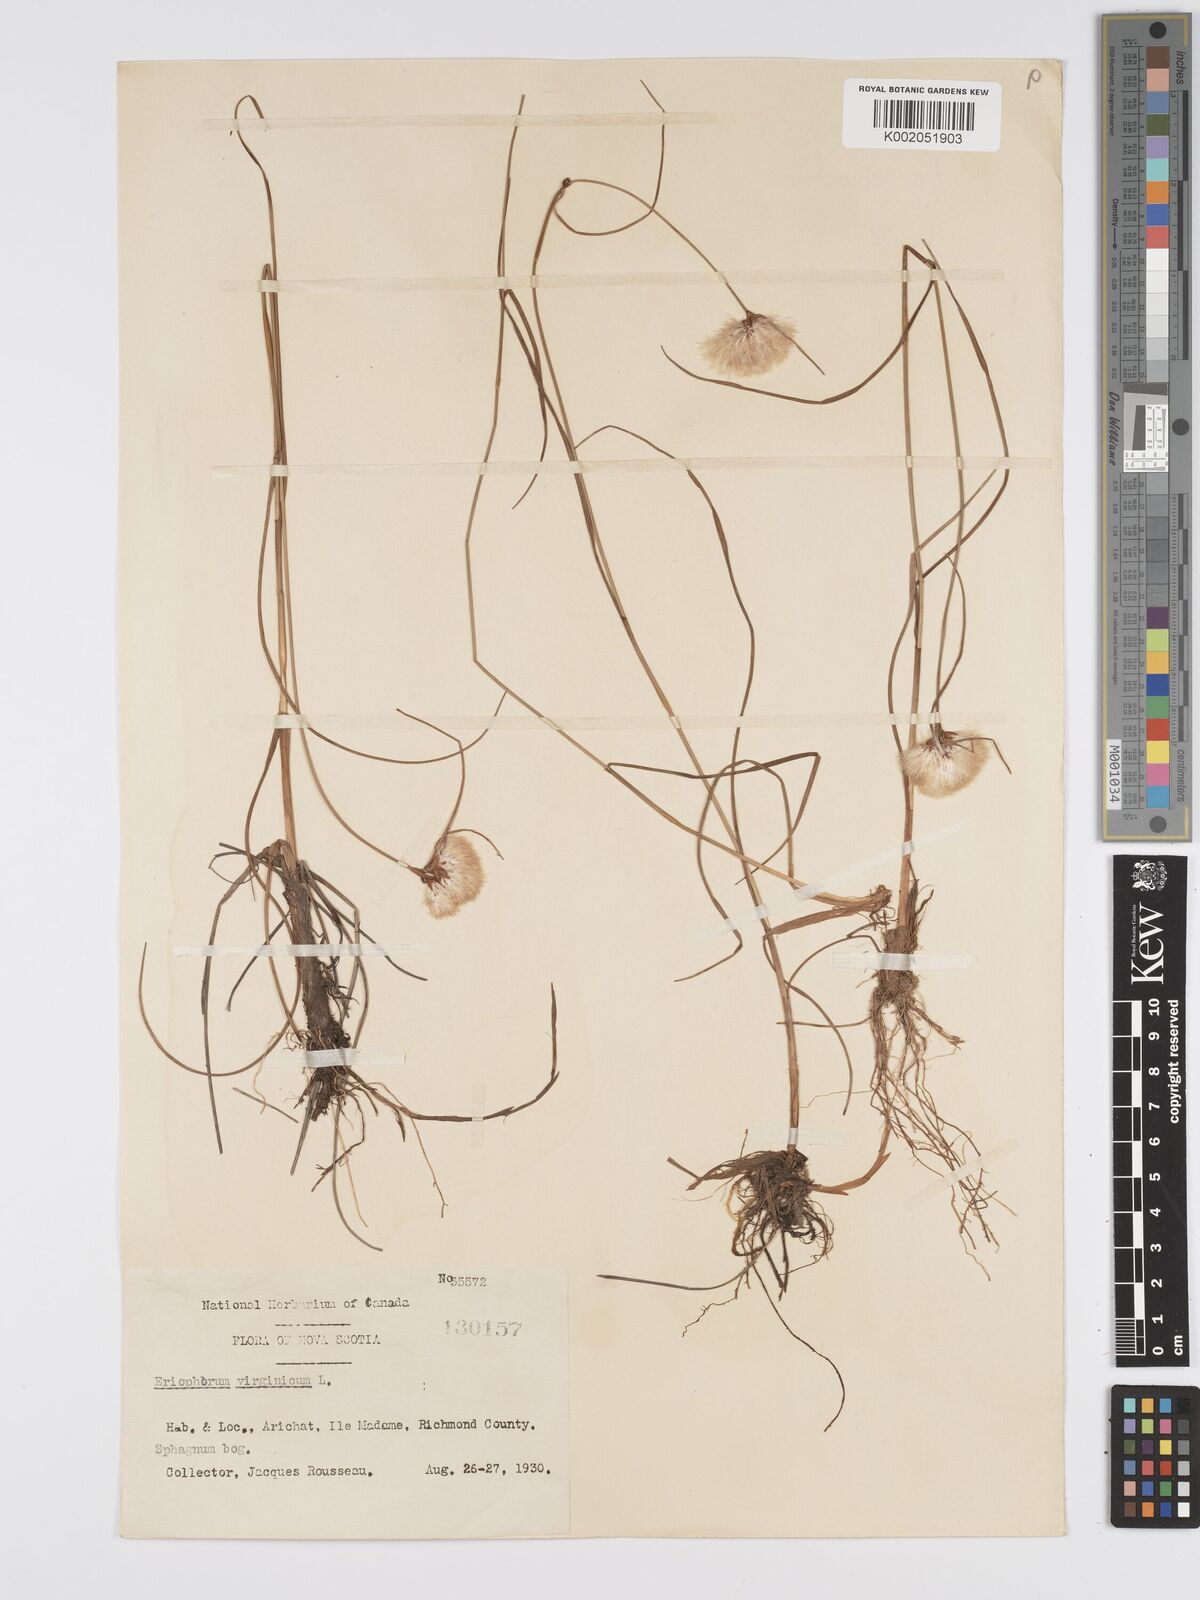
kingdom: Plantae
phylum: Tracheophyta
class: Liliopsida
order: Poales
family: Cyperaceae
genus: Eriophorum
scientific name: Eriophorum virginicum
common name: Tawny cottongrass
